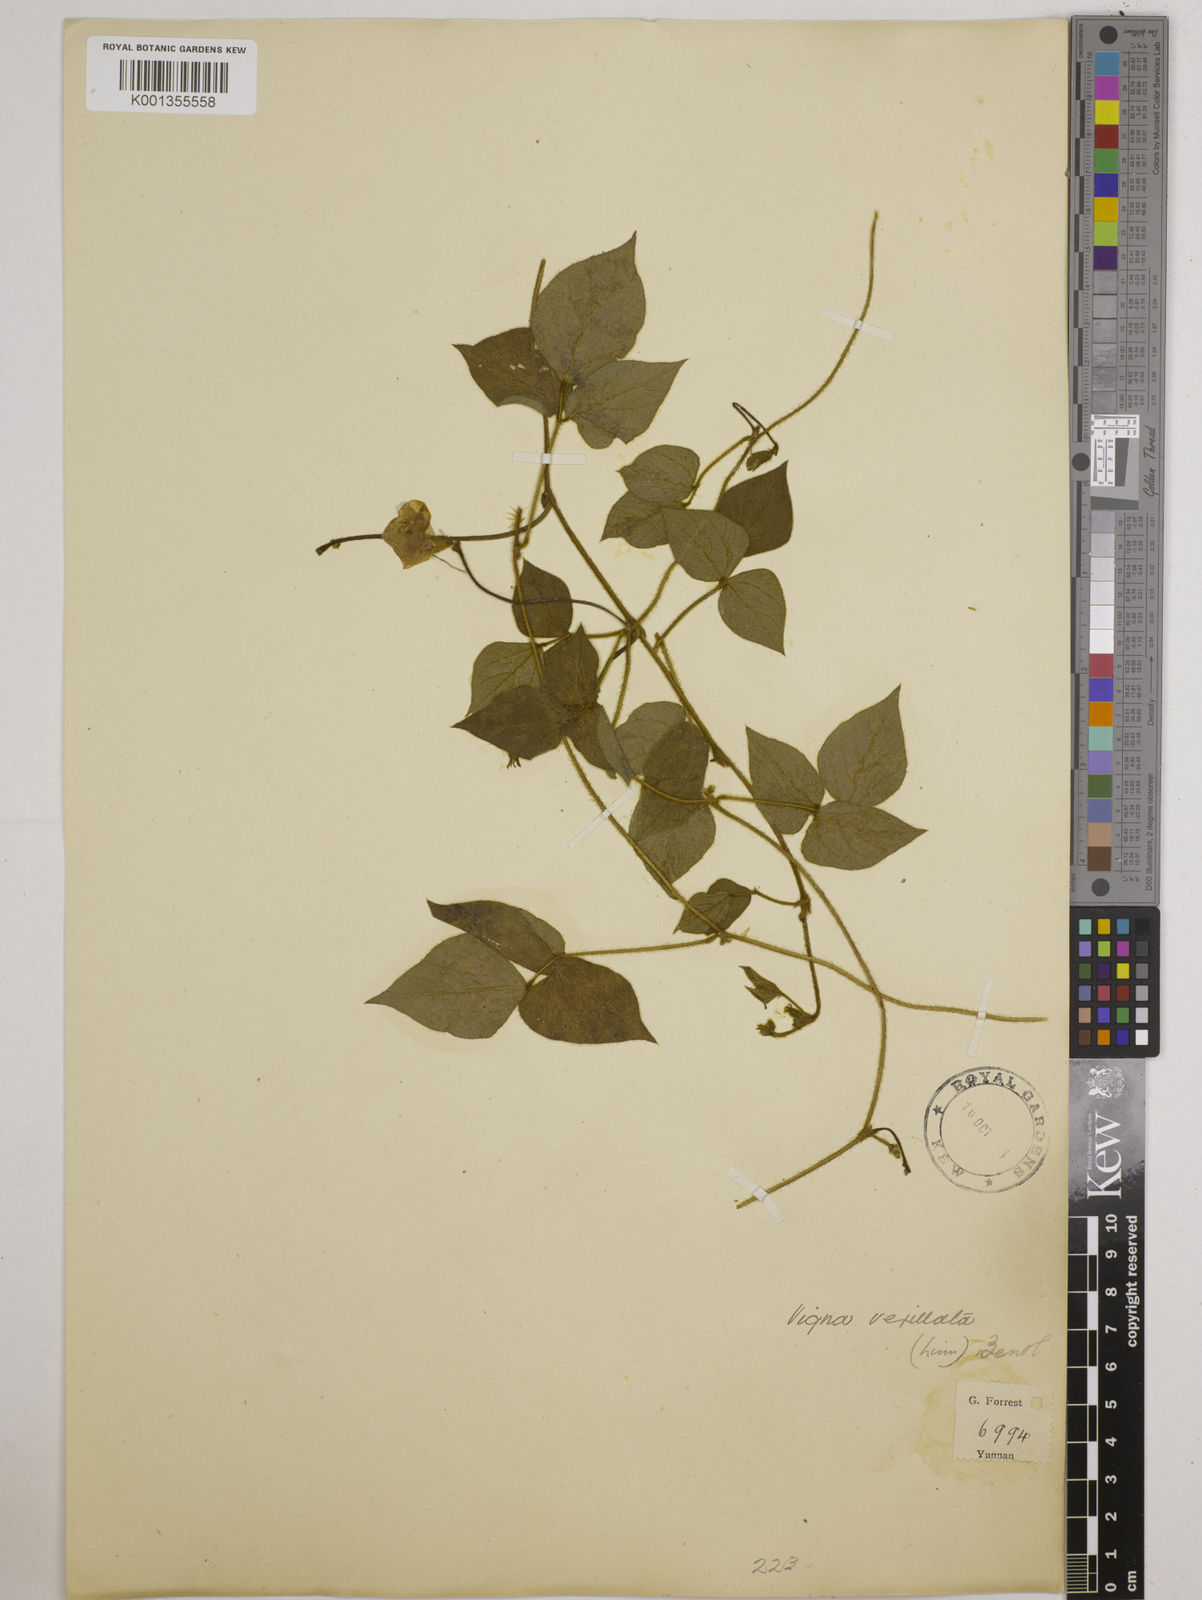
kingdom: Plantae
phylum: Tracheophyta
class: Magnoliopsida
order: Fabales
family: Fabaceae
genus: Vigna
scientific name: Vigna vexillata
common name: Zombi pea
